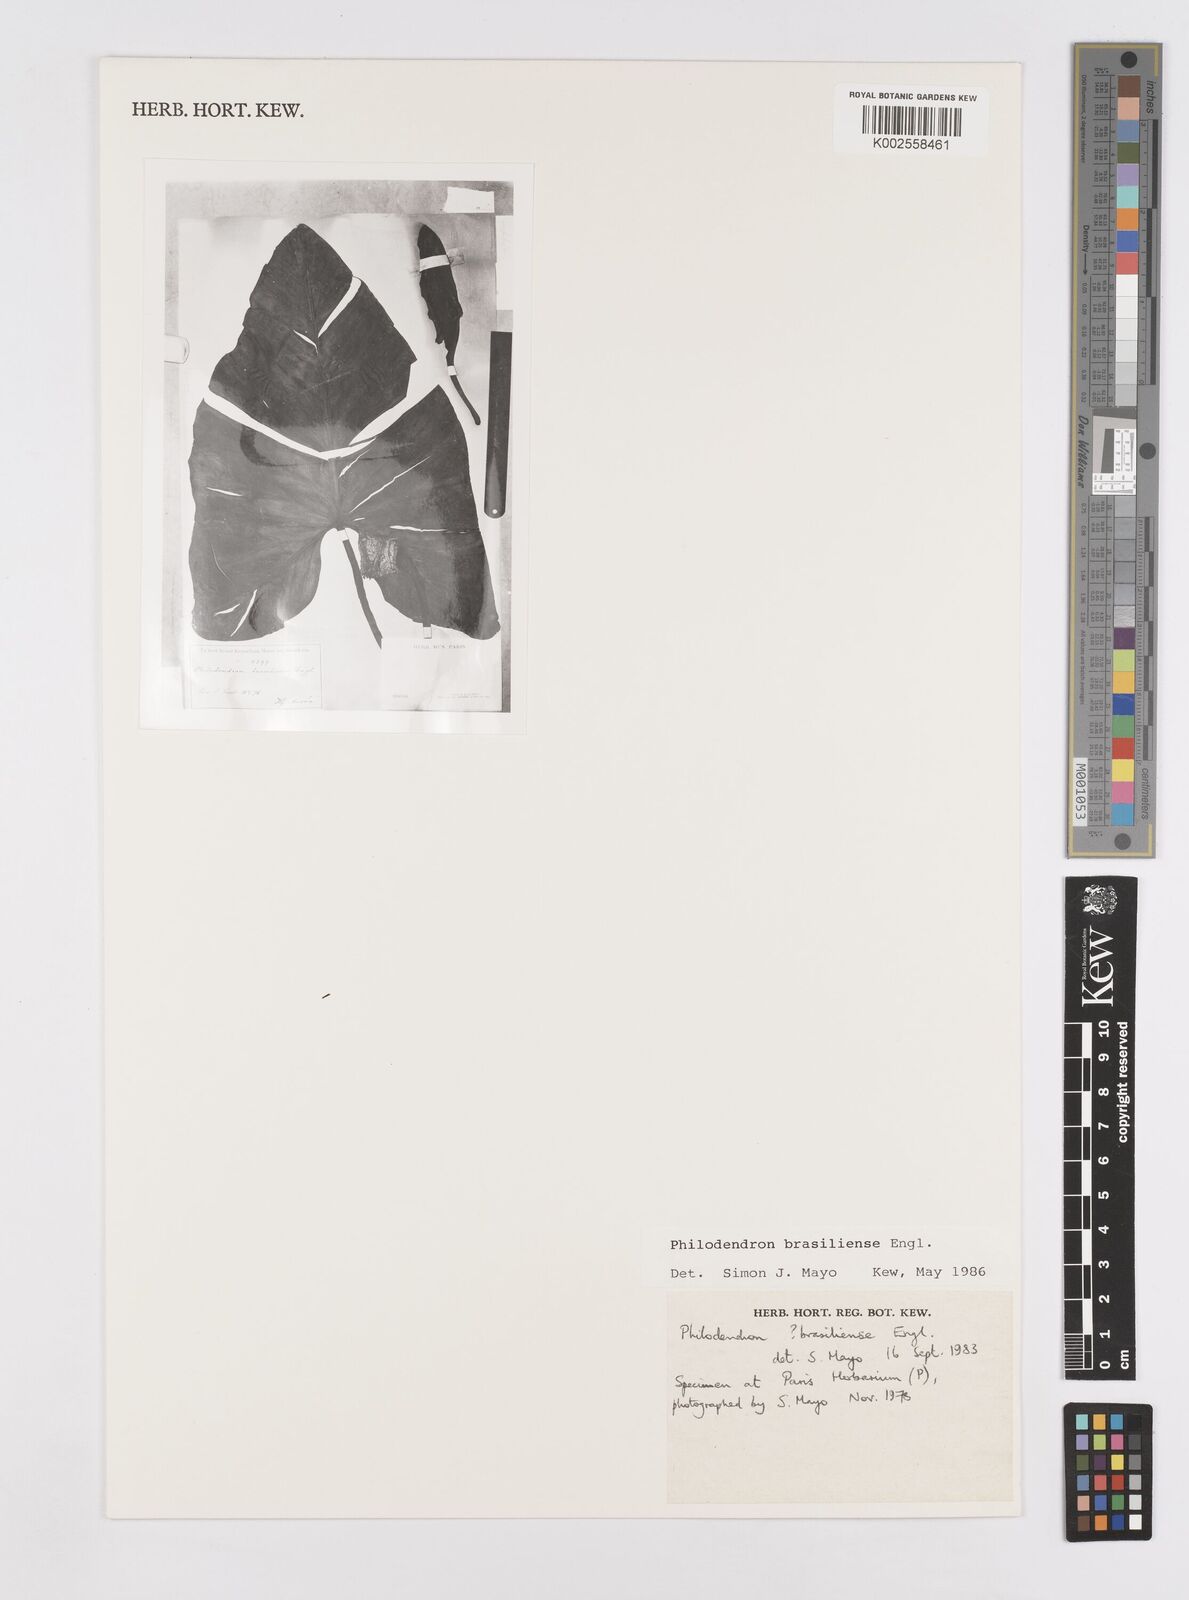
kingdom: Plantae
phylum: Tracheophyta
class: Liliopsida
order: Alismatales
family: Araceae
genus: Thaumatophyllum
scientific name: Thaumatophyllum brasiliense
